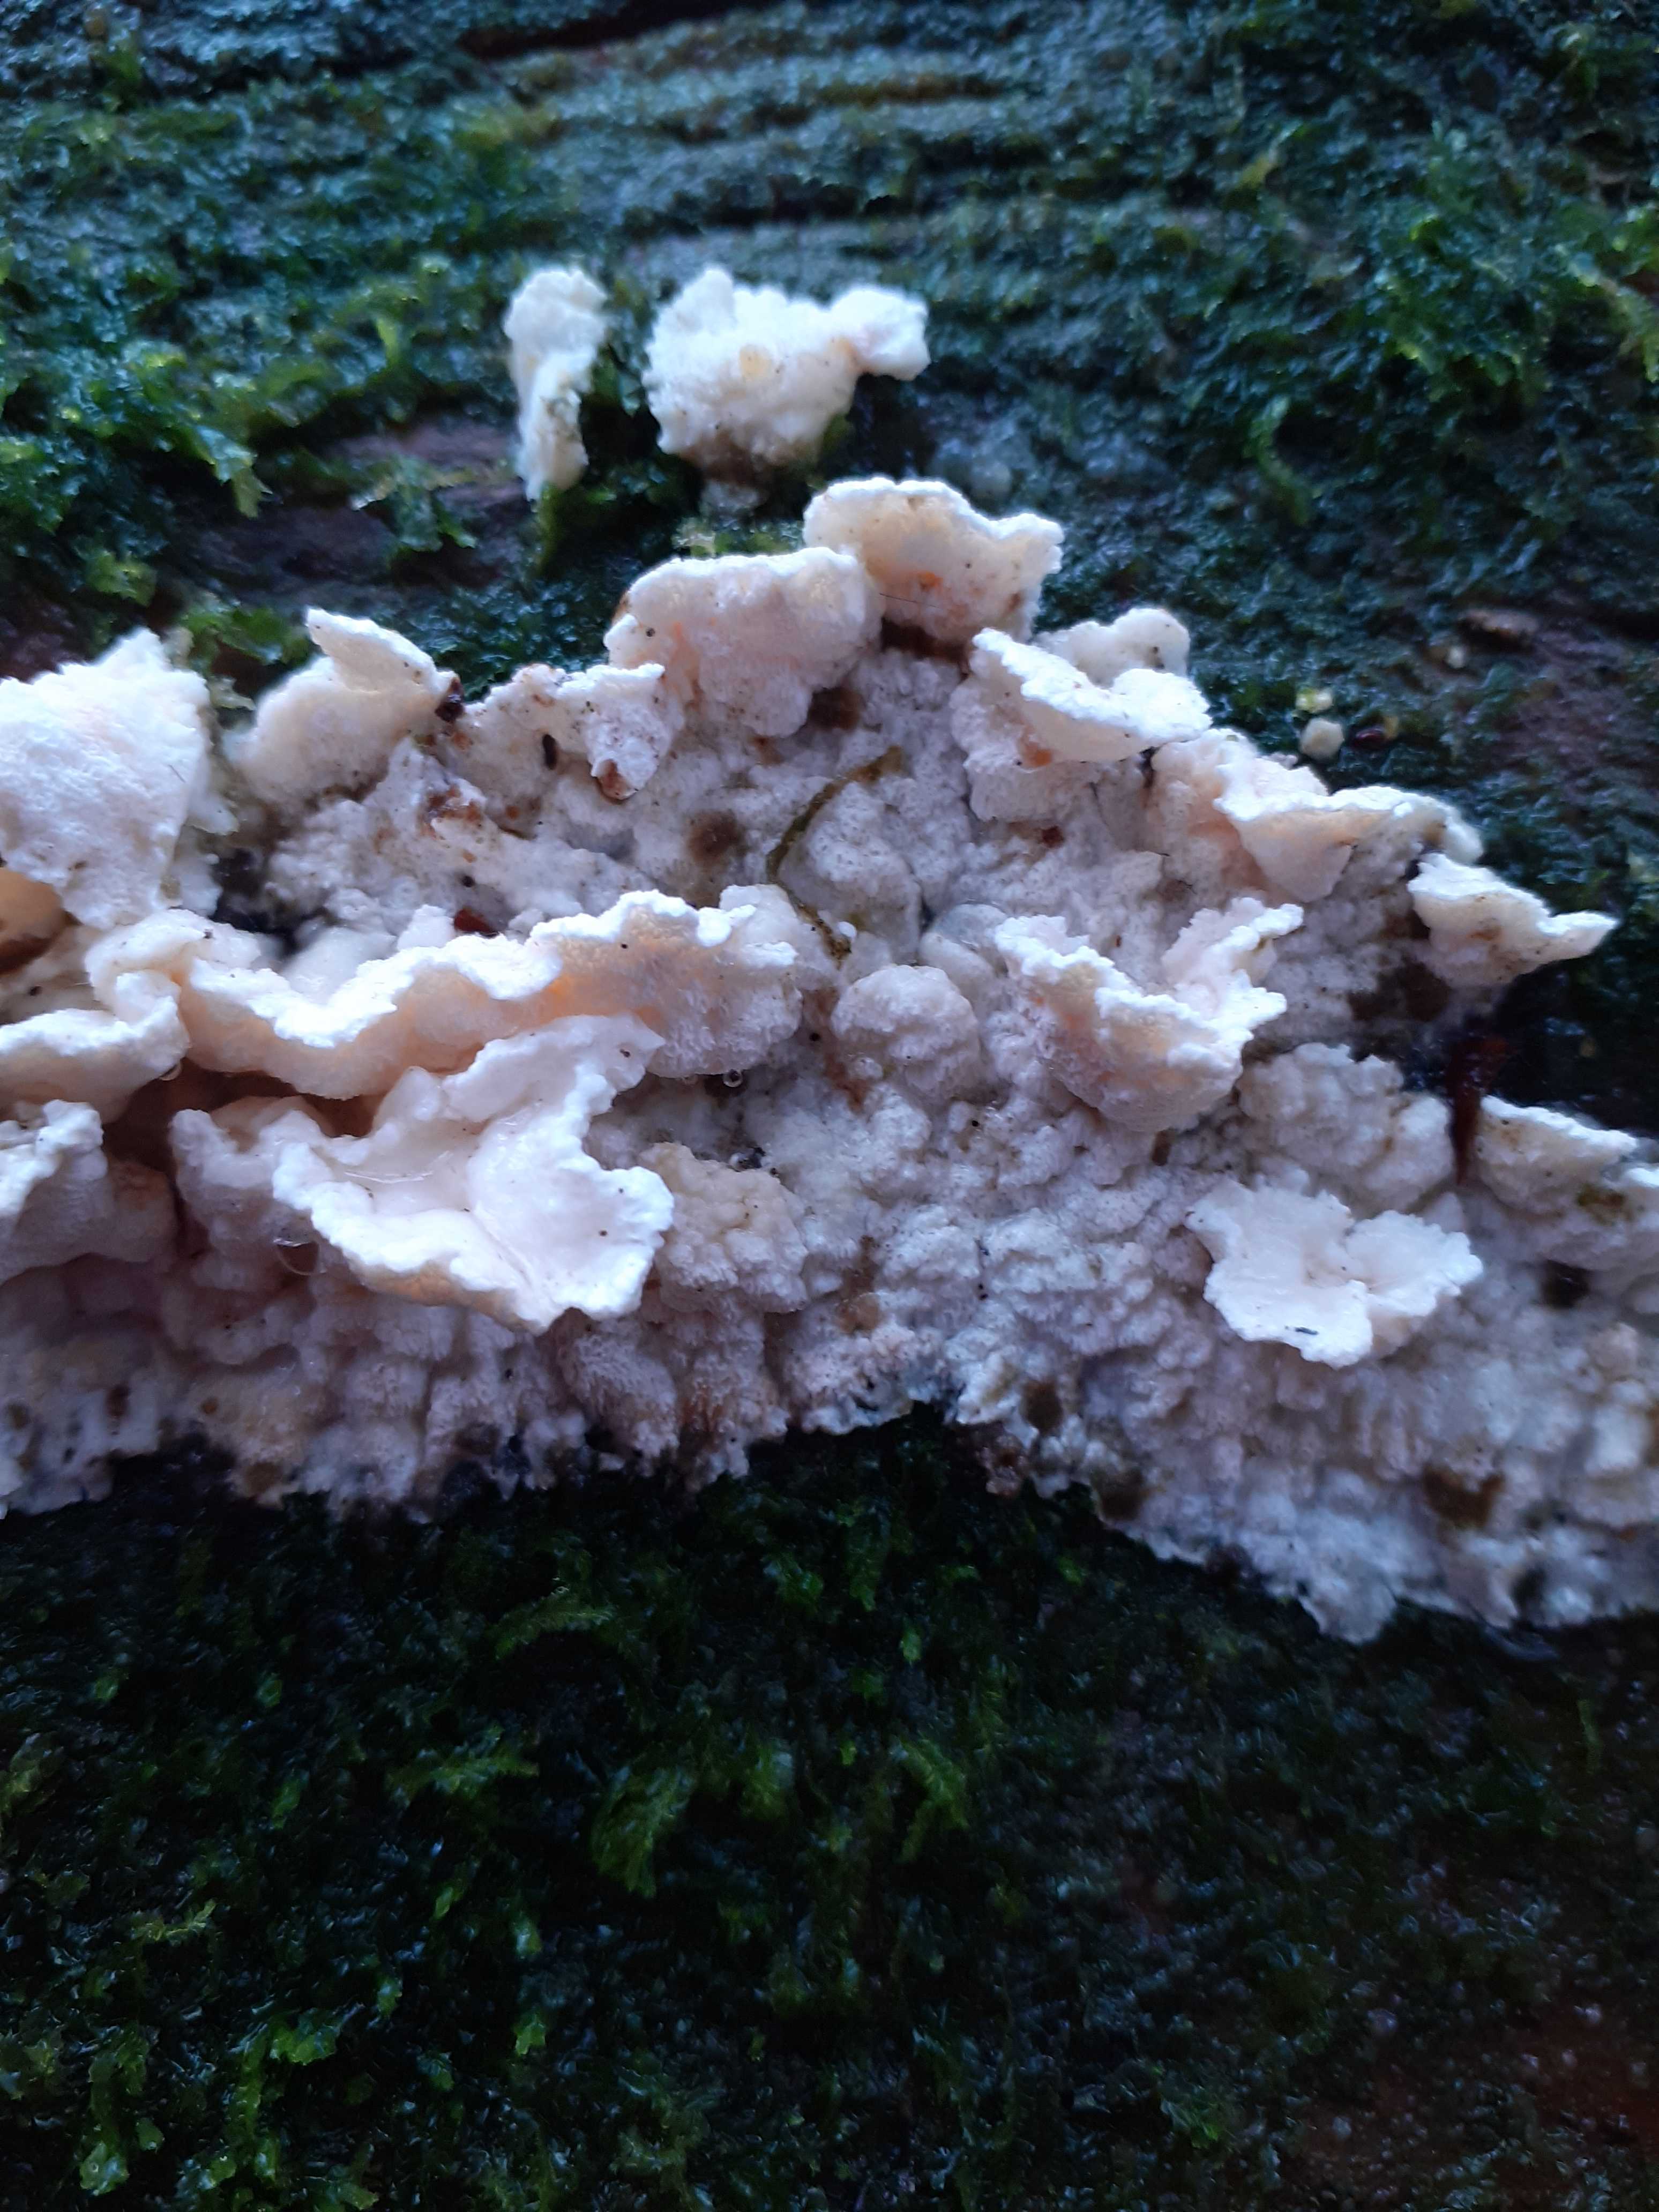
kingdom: Fungi
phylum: Basidiomycota
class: Agaricomycetes
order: Polyporales
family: Incrustoporiaceae
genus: Skeletocutis
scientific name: Skeletocutis amorpha
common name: orange krystalporesvamp
